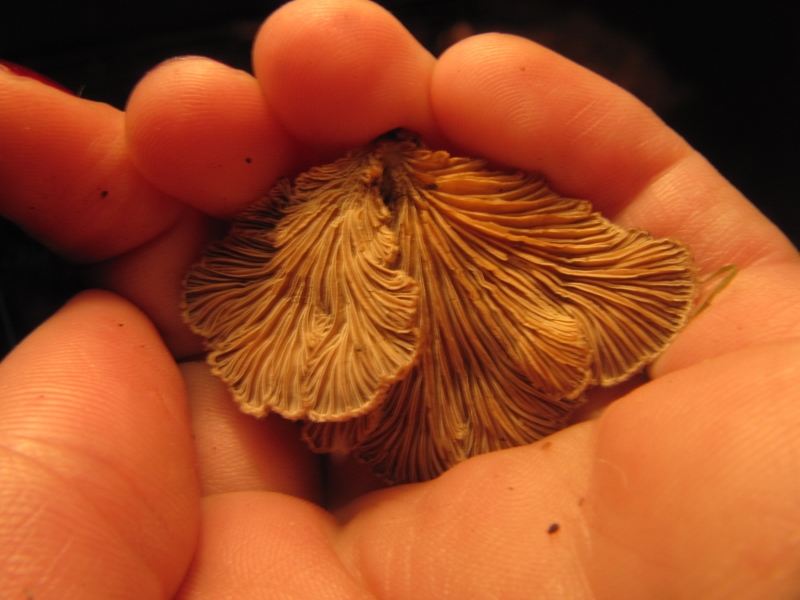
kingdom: Fungi
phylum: Basidiomycota
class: Agaricomycetes
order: Agaricales
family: Schizophyllaceae
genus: Schizophyllum
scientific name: Schizophyllum commune
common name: kløvblad
